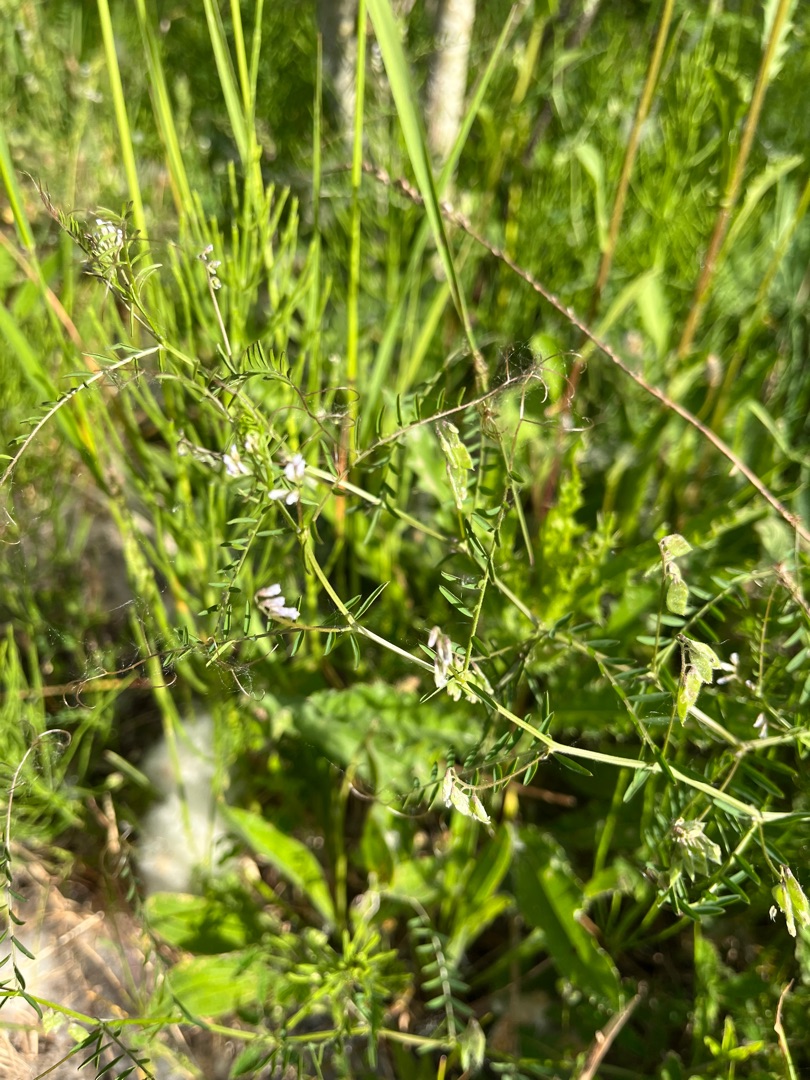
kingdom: Plantae
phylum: Tracheophyta
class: Magnoliopsida
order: Fabales
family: Fabaceae
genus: Vicia
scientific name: Vicia hirsuta
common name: Tofrøet vikke
